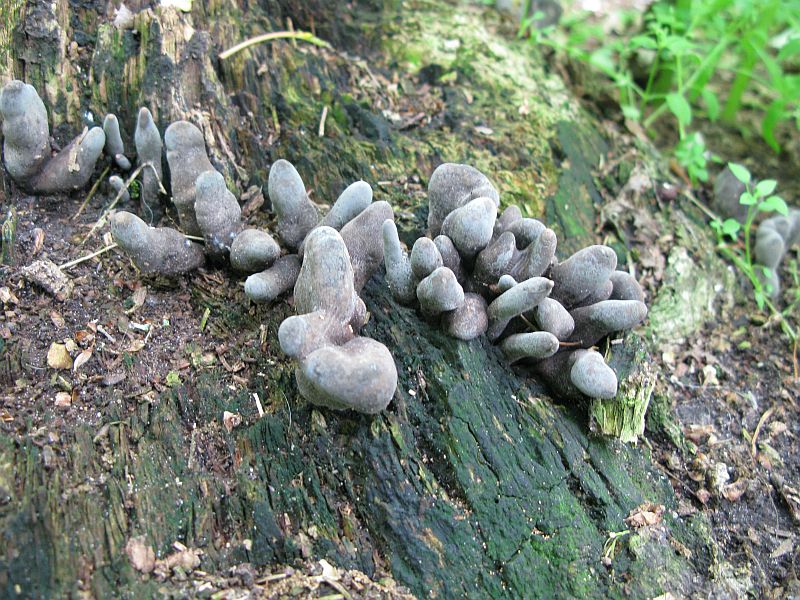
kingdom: Fungi
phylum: Ascomycota
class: Sordariomycetes
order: Xylariales
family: Xylariaceae
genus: Xylaria
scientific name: Xylaria polymorpha
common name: kølle-stødsvamp
